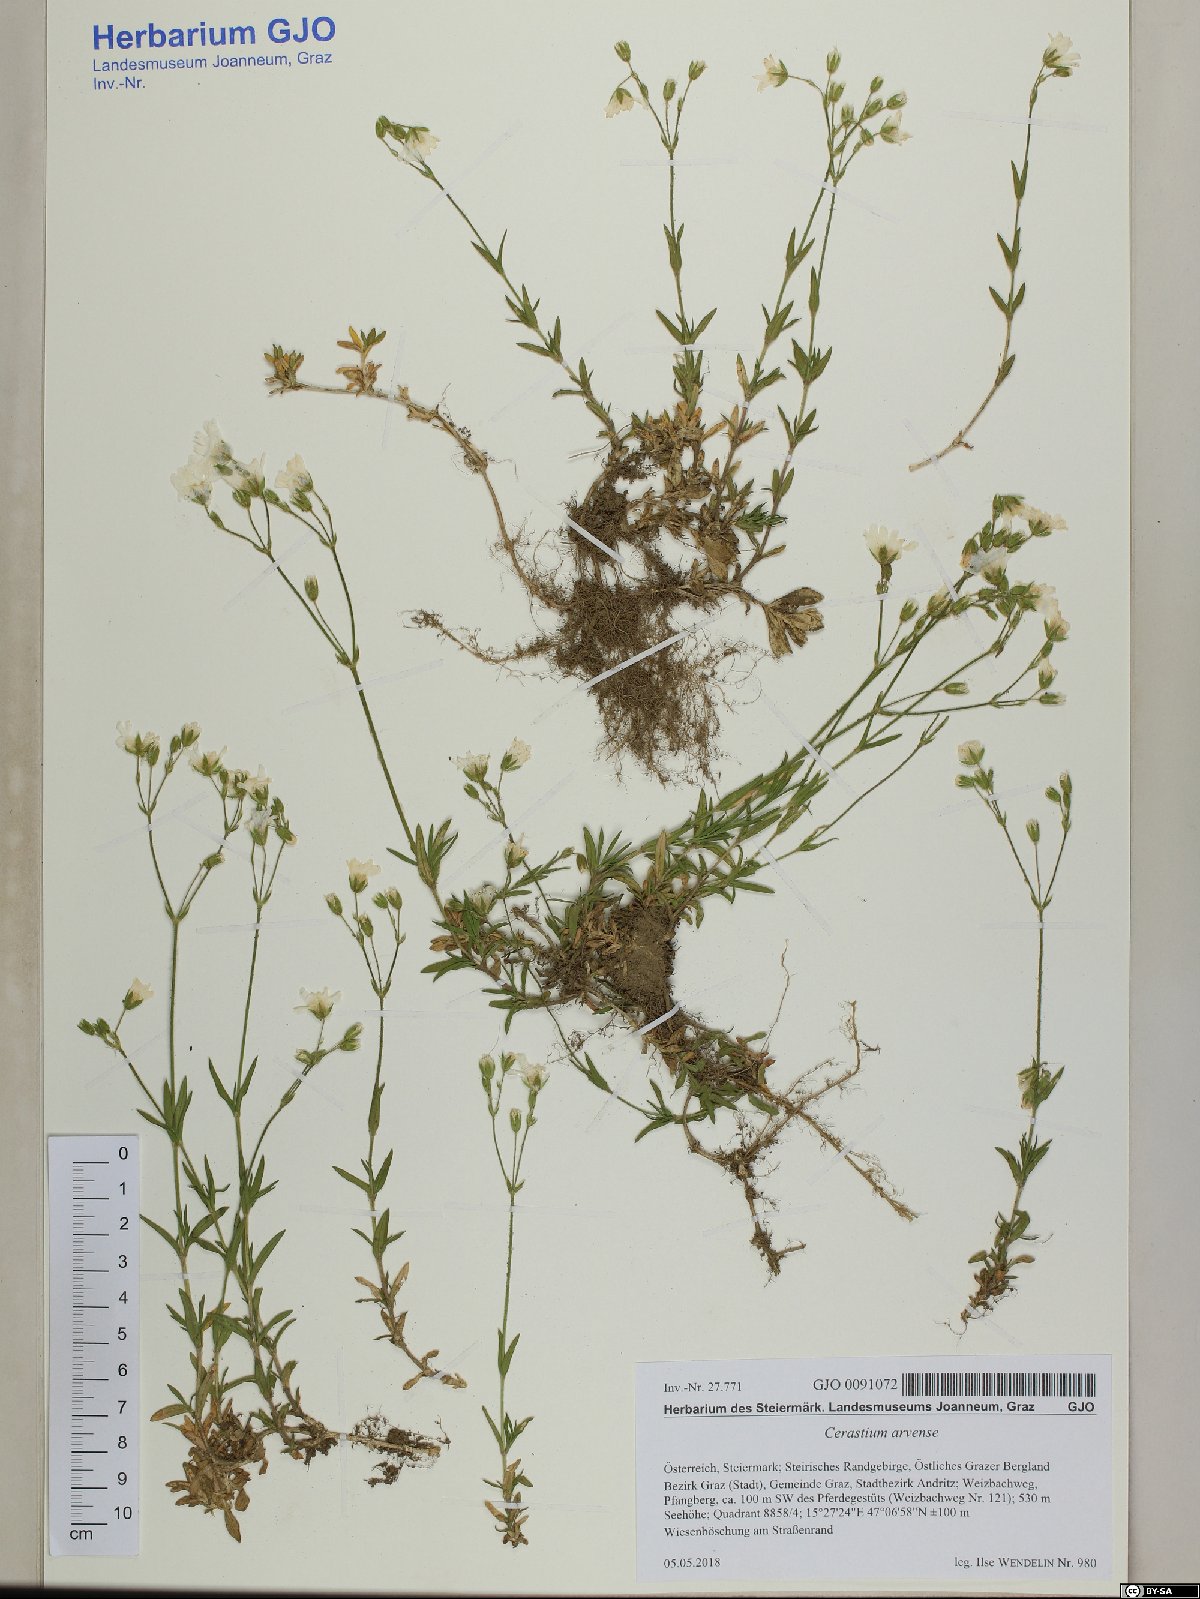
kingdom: Plantae
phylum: Tracheophyta
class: Magnoliopsida
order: Caryophyllales
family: Caryophyllaceae
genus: Cerastium
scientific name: Cerastium arvense
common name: Field mouse-ear
